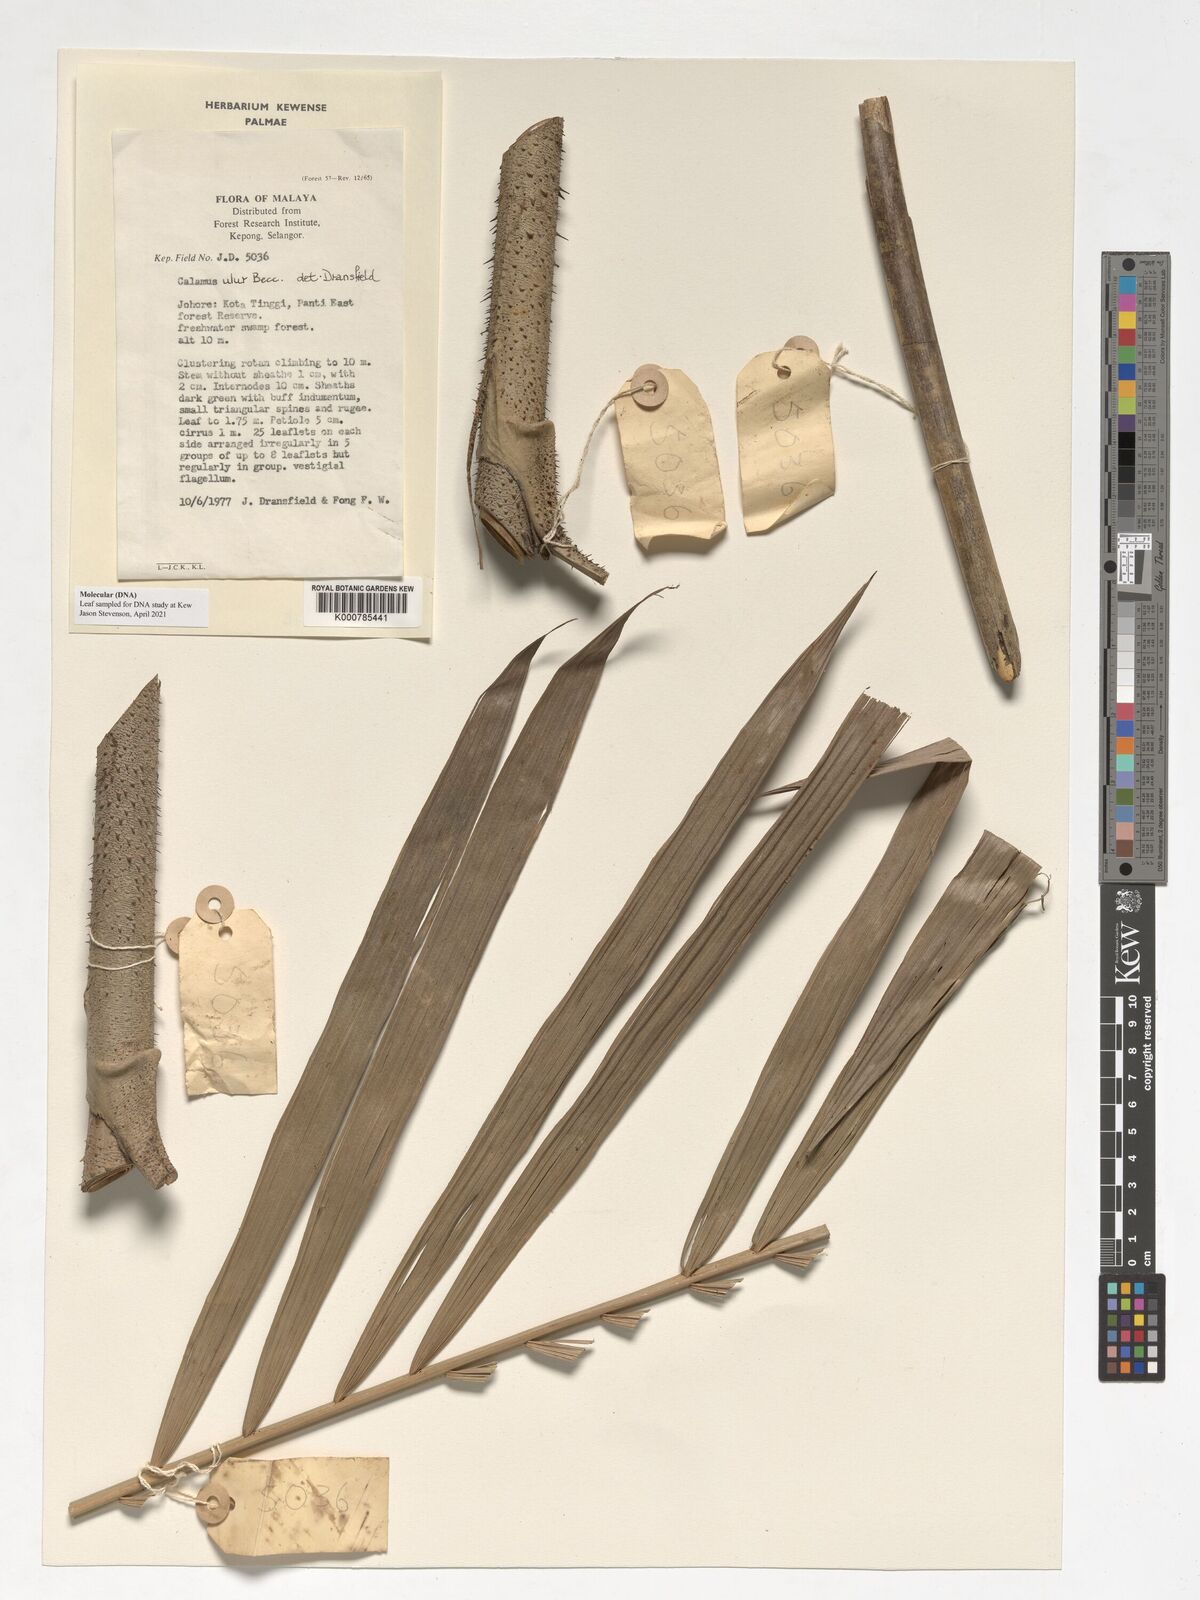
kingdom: Plantae
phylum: Tracheophyta
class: Liliopsida
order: Arecales
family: Arecaceae
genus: Calamus
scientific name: Calamus erioacanthus
